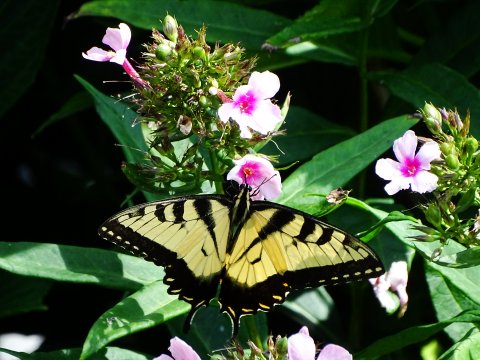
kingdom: Animalia
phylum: Arthropoda
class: Insecta
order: Lepidoptera
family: Papilionidae
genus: Pterourus
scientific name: Pterourus glaucus
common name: Eastern Tiger Swallowtail
